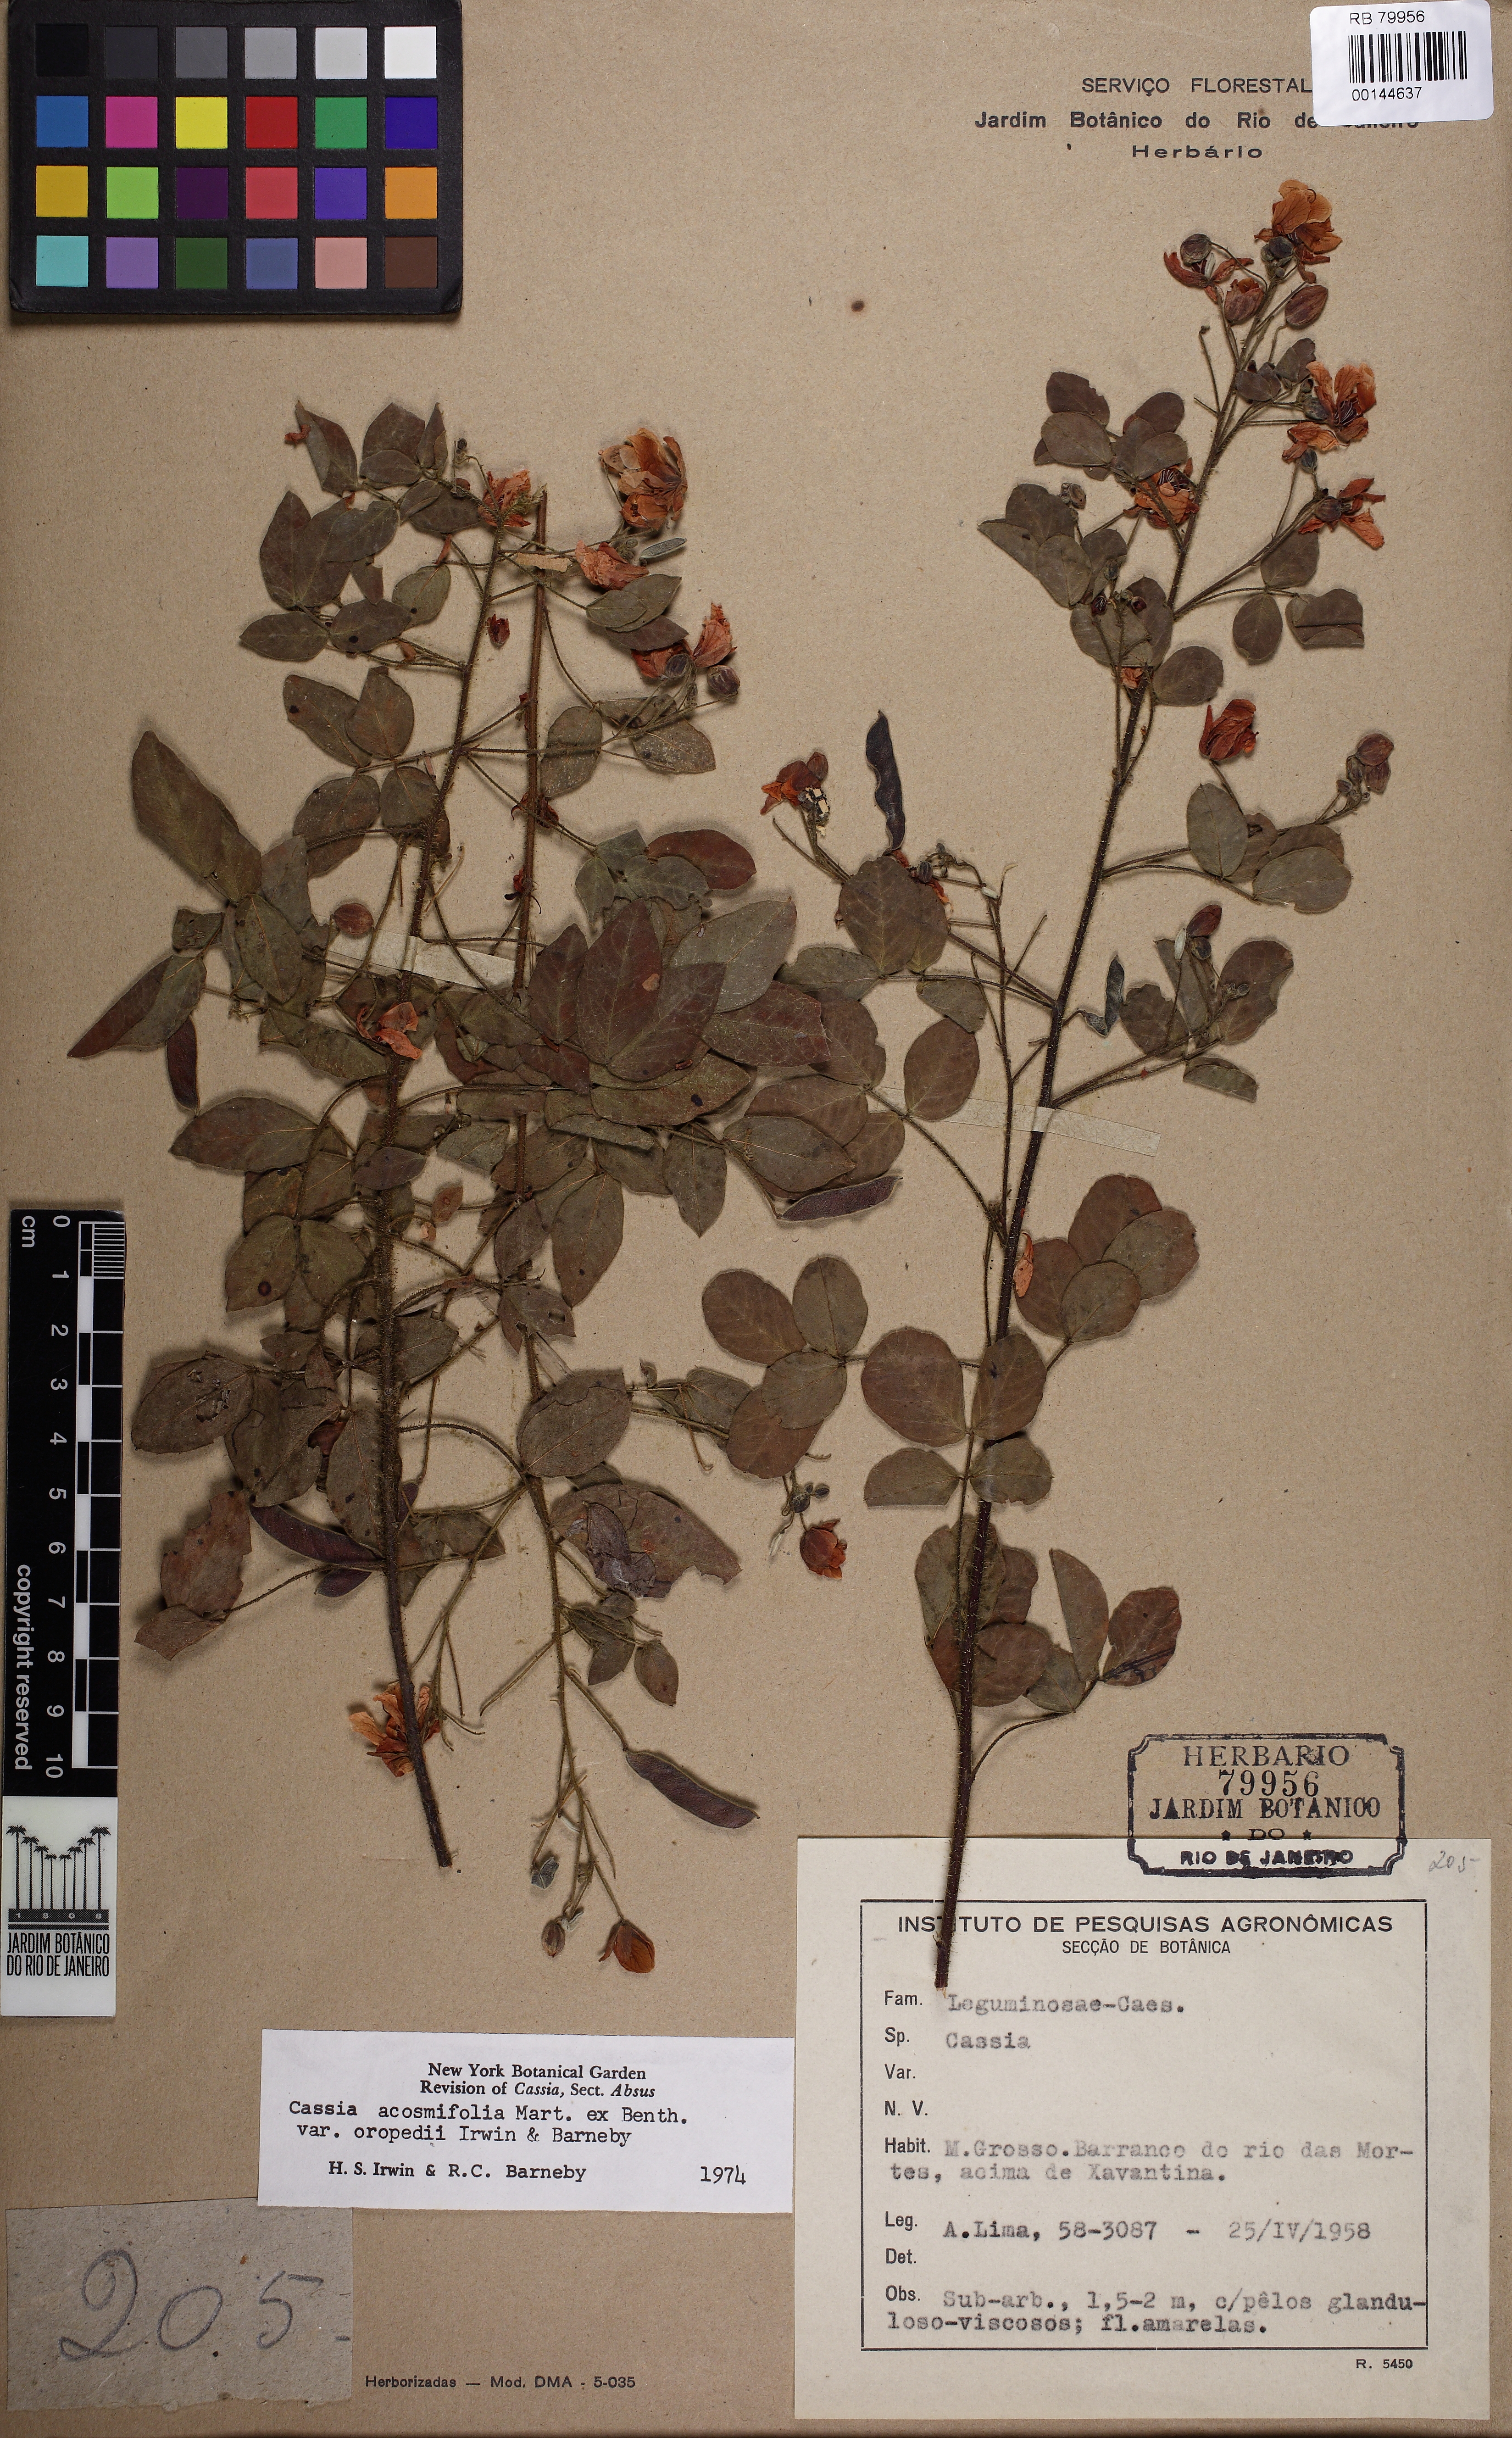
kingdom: Plantae
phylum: Tracheophyta
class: Magnoliopsida
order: Fabales
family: Fabaceae
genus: Chamaecrista
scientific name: Chamaecrista acosmifolia
